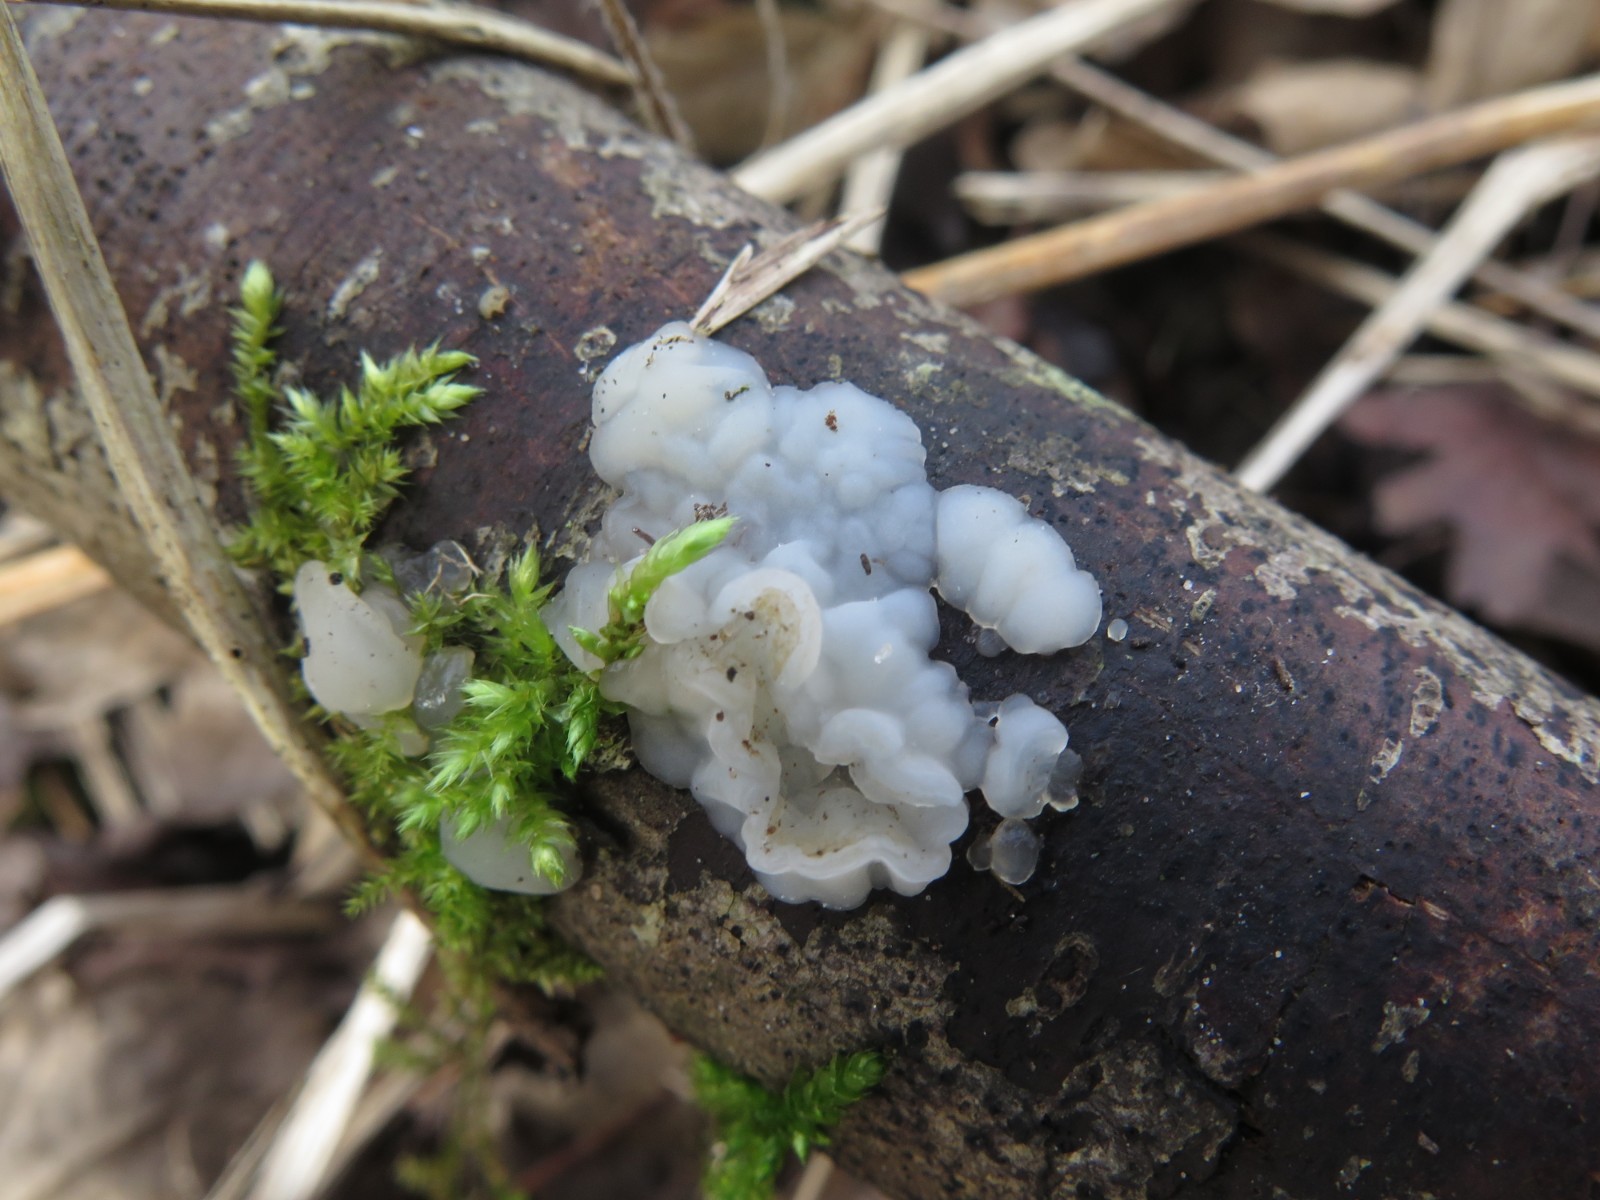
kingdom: Fungi
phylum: Basidiomycota
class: Agaricomycetes
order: Auriculariales
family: Auriculariaceae
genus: Exidia
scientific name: Exidia thuretiana
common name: hvidlig bævretop
